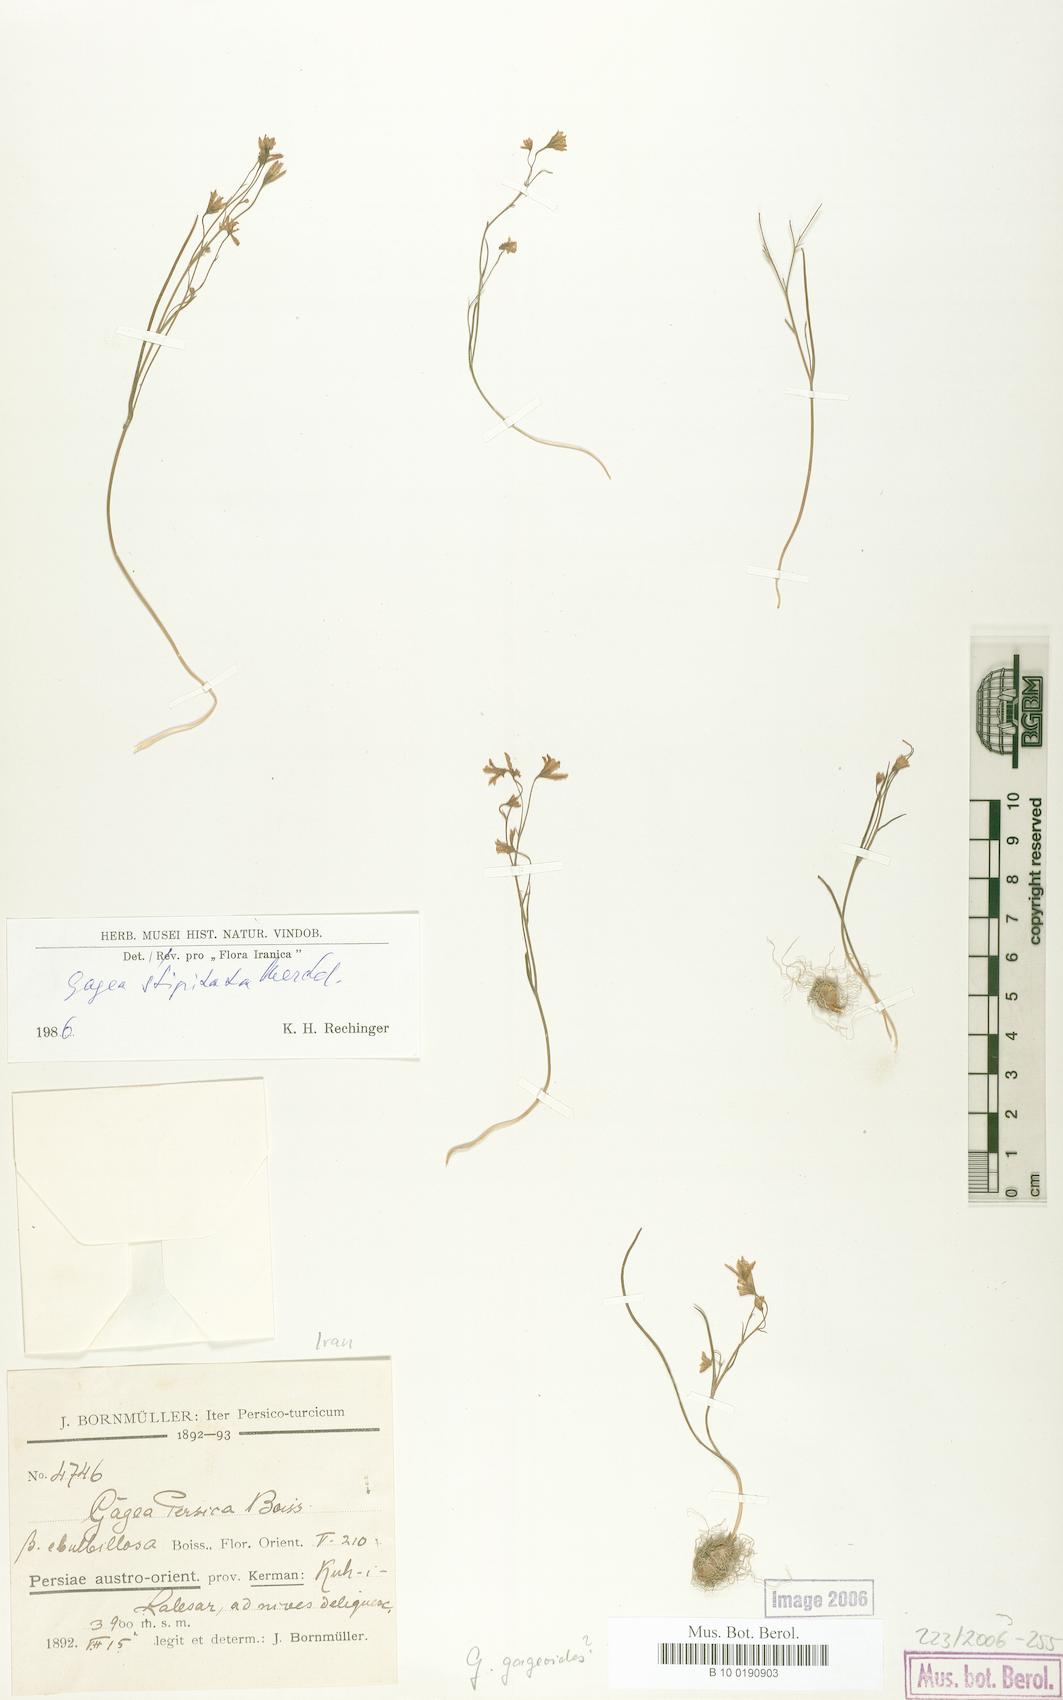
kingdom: Plantae
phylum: Tracheophyta
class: Liliopsida
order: Liliales
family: Liliaceae
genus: Gagea
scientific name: Gagea kunawurensis
